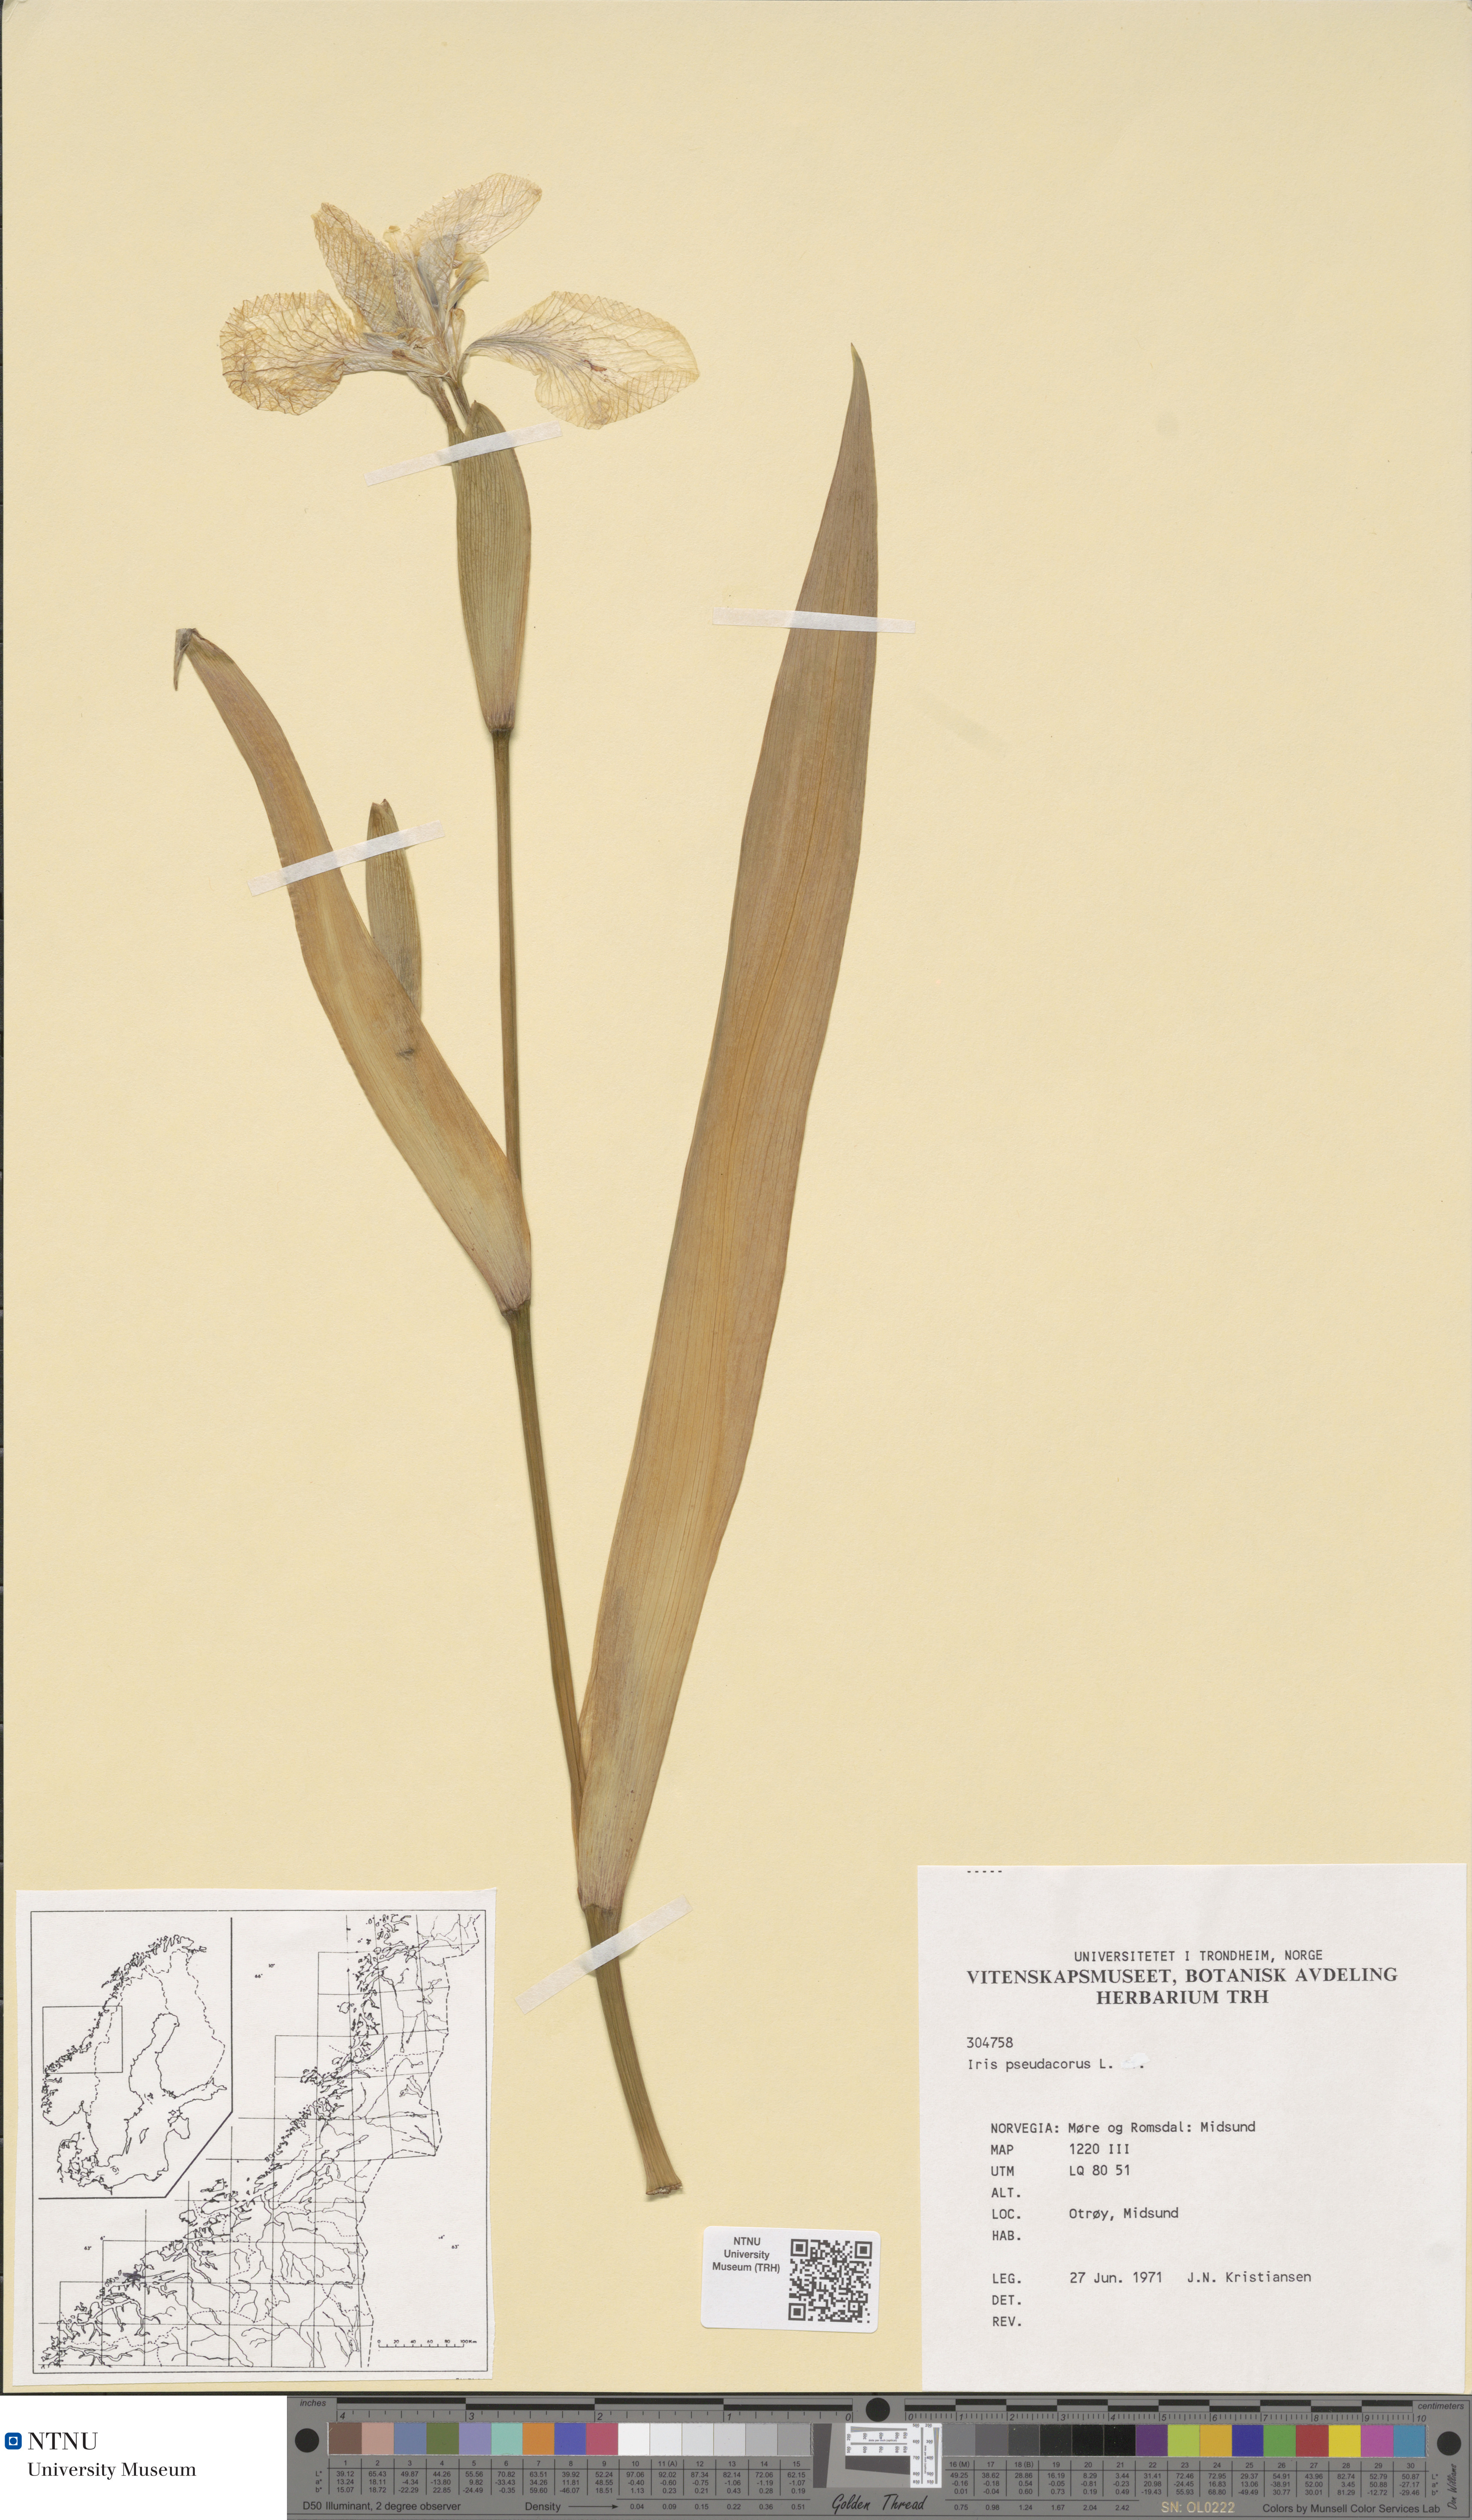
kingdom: Plantae
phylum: Tracheophyta
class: Liliopsida
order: Asparagales
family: Iridaceae
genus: Iris
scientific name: Iris pseudacorus
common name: Yellow flag
